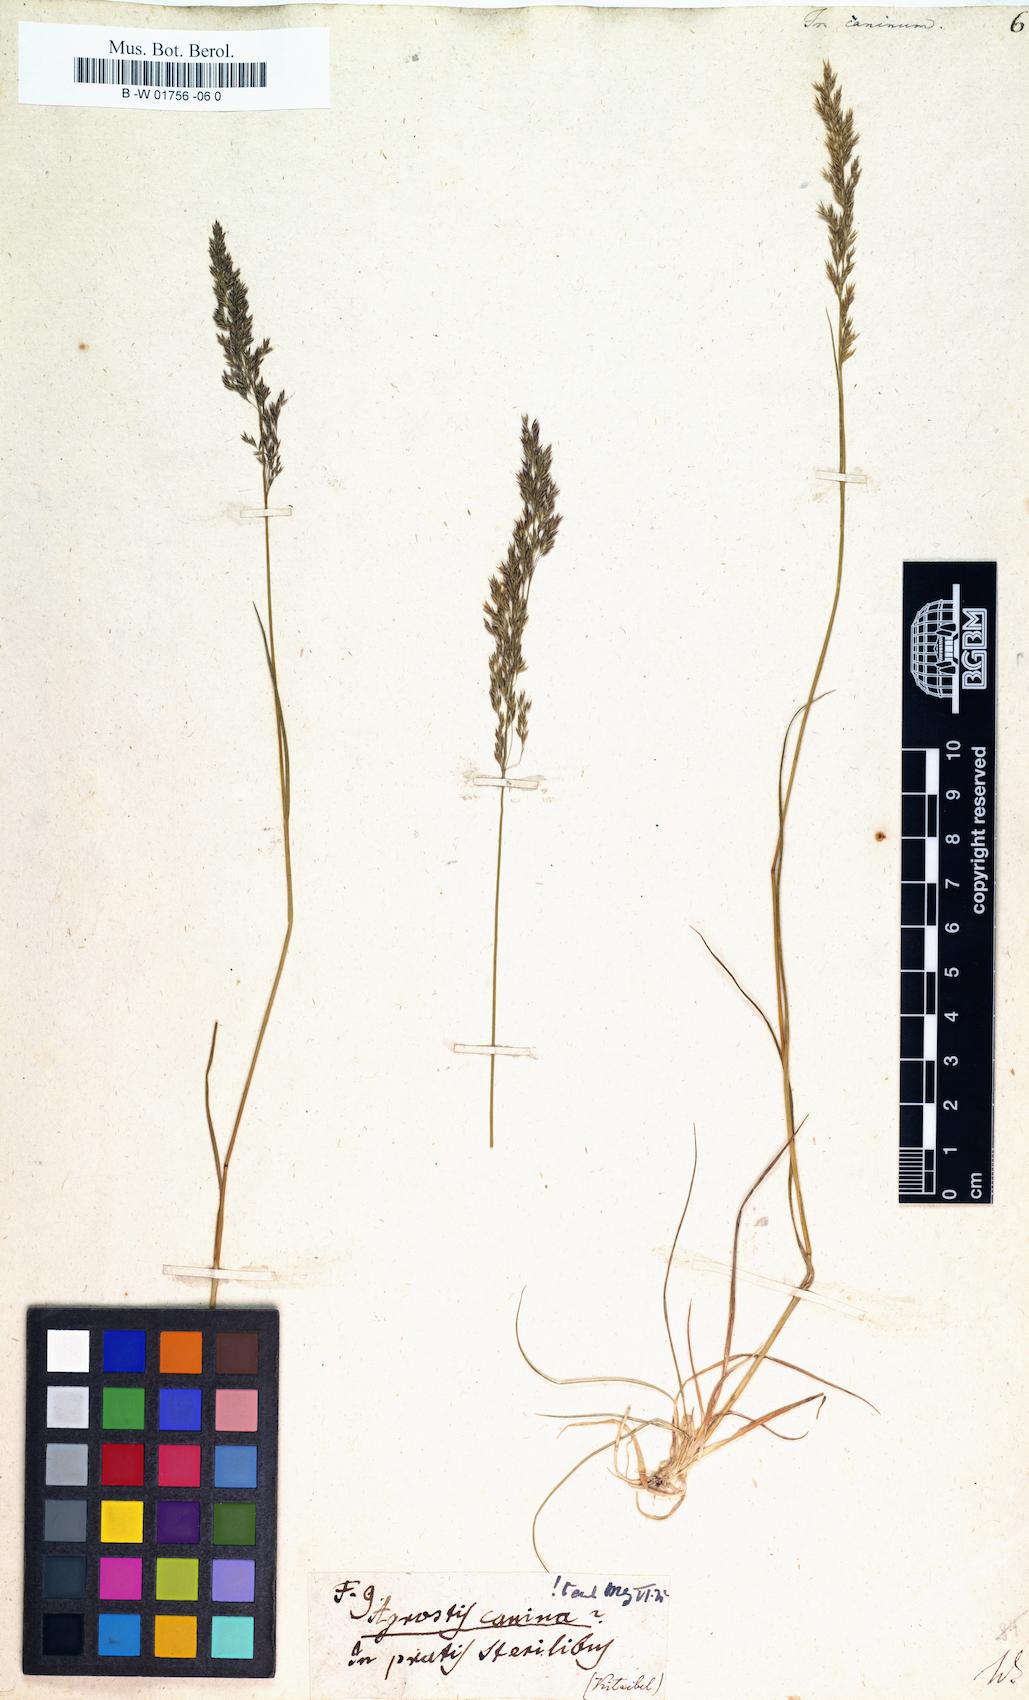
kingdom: Plantae
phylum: Tracheophyta
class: Liliopsida
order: Poales
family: Poaceae
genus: Agrostis
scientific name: Agrostis canina
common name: Velvet bent
